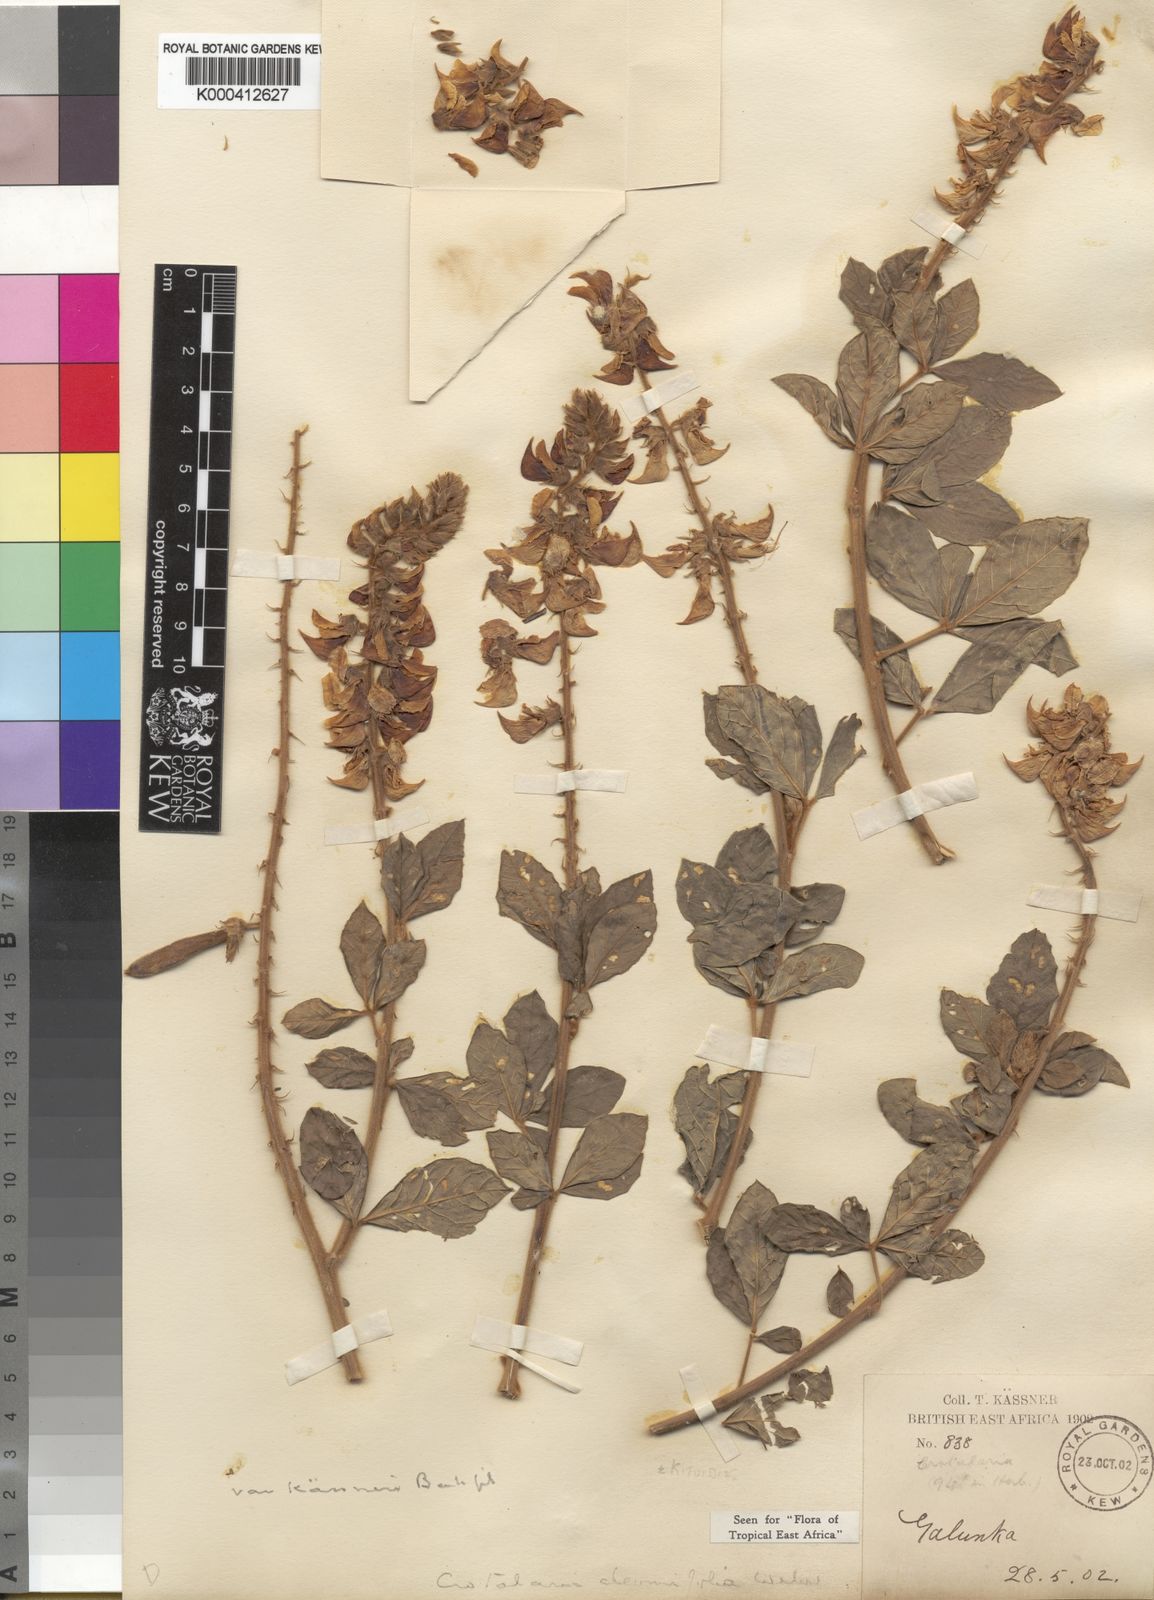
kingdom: Plantae
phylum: Tracheophyta
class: Magnoliopsida
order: Fabales
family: Fabaceae
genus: Crotalaria
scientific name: Crotalaria cleomifolia
